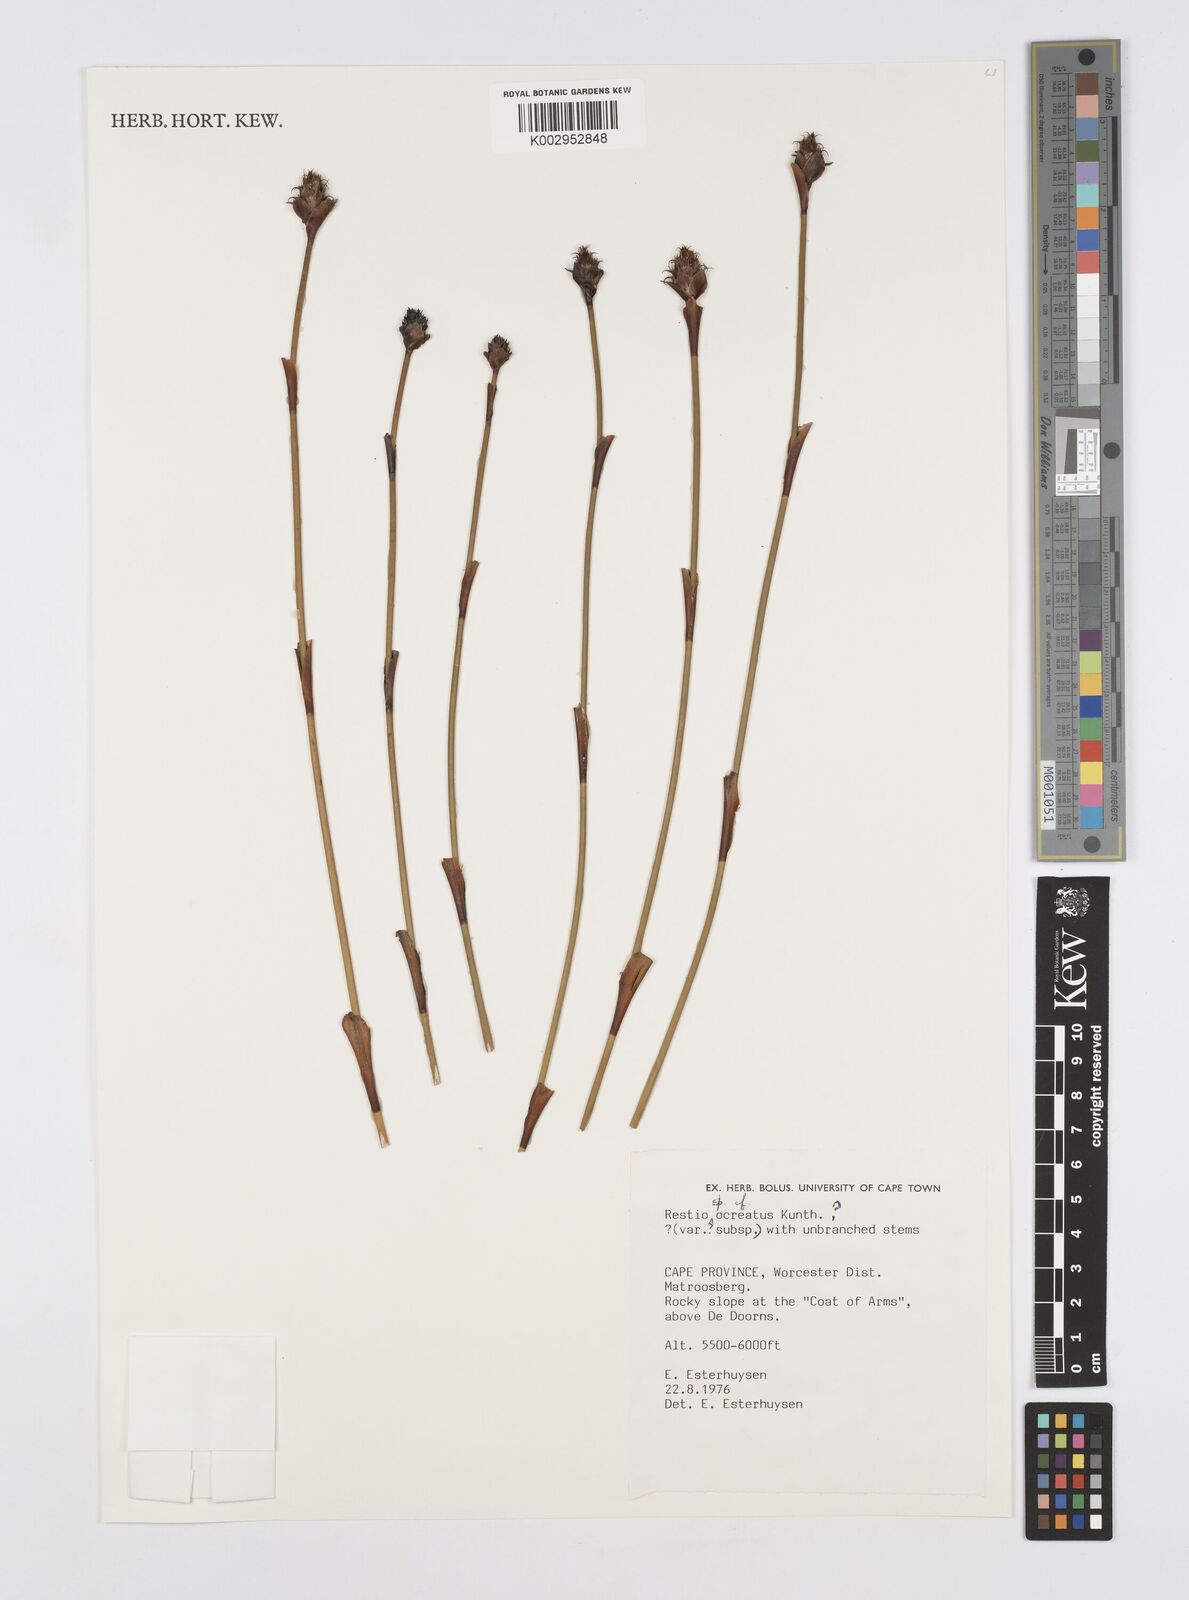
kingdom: Plantae
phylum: Tracheophyta
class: Liliopsida
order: Poales
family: Restionaceae
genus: Restio
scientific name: Restio ocreatus
